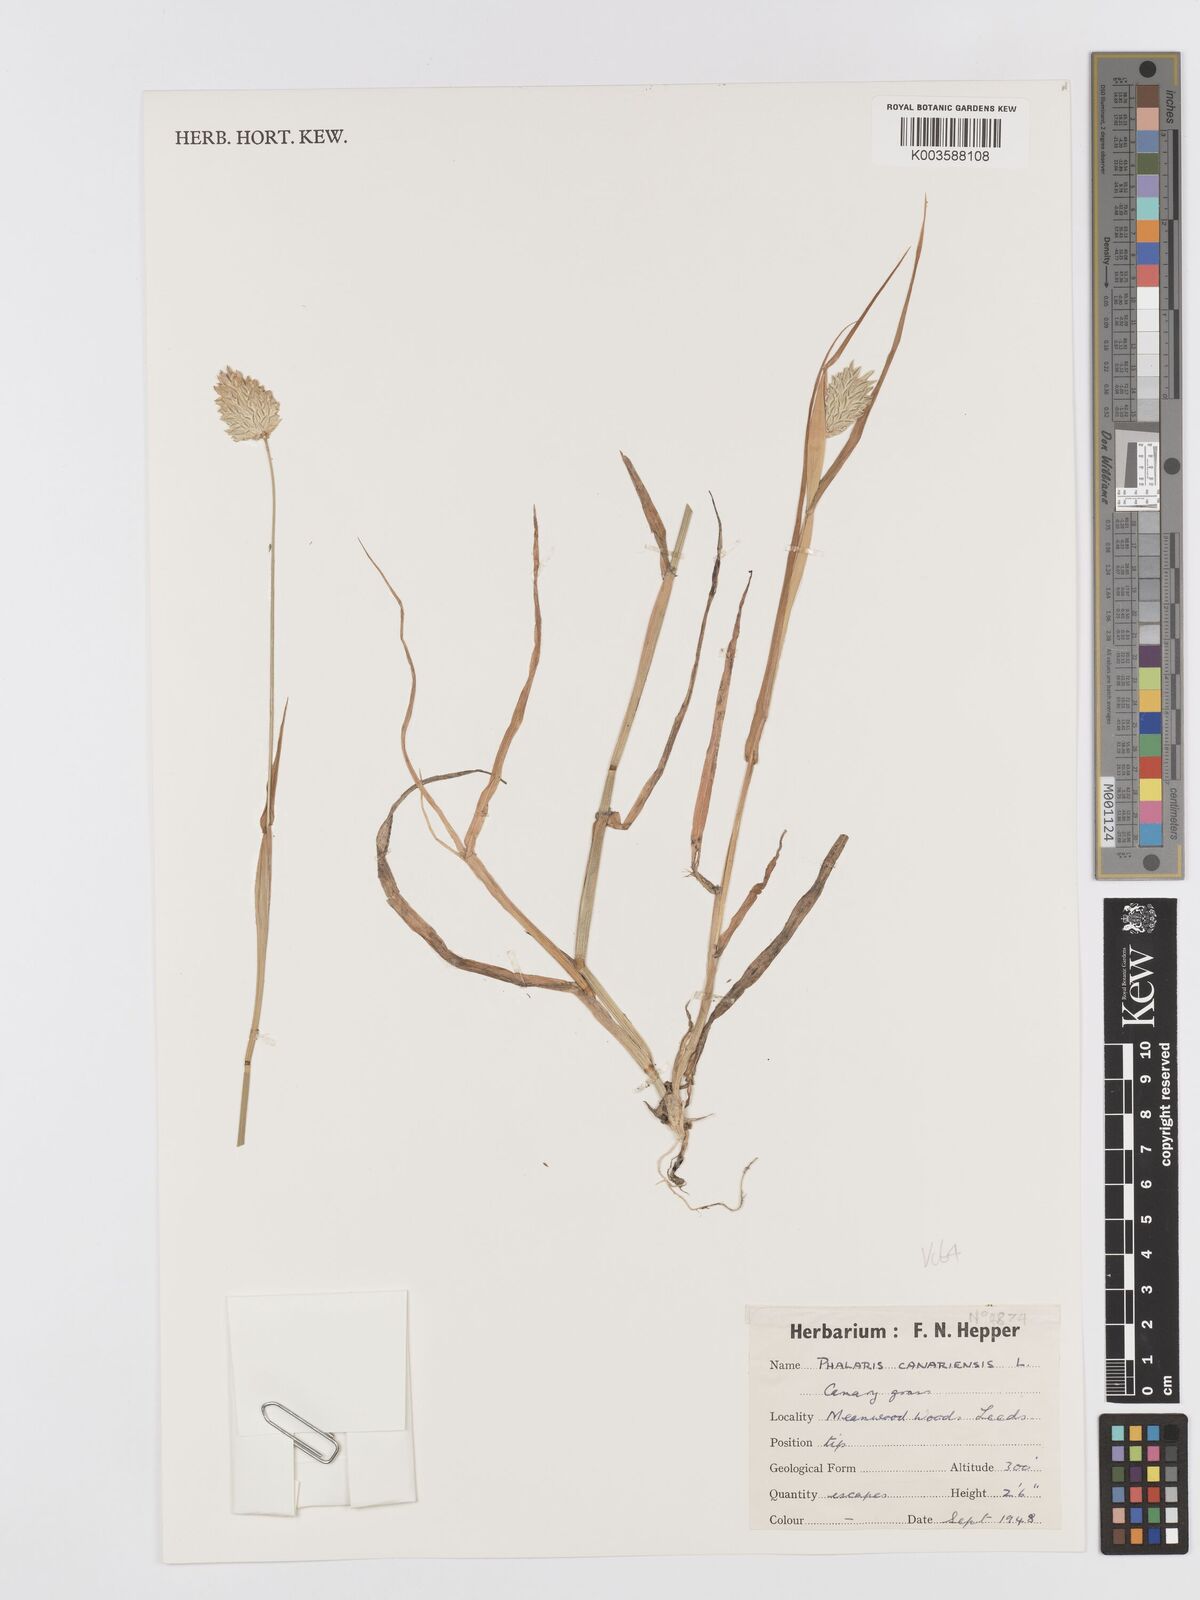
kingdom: Plantae
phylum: Tracheophyta
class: Liliopsida
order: Poales
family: Poaceae
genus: Phalaris
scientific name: Phalaris canariensis
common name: Annual canarygrass
